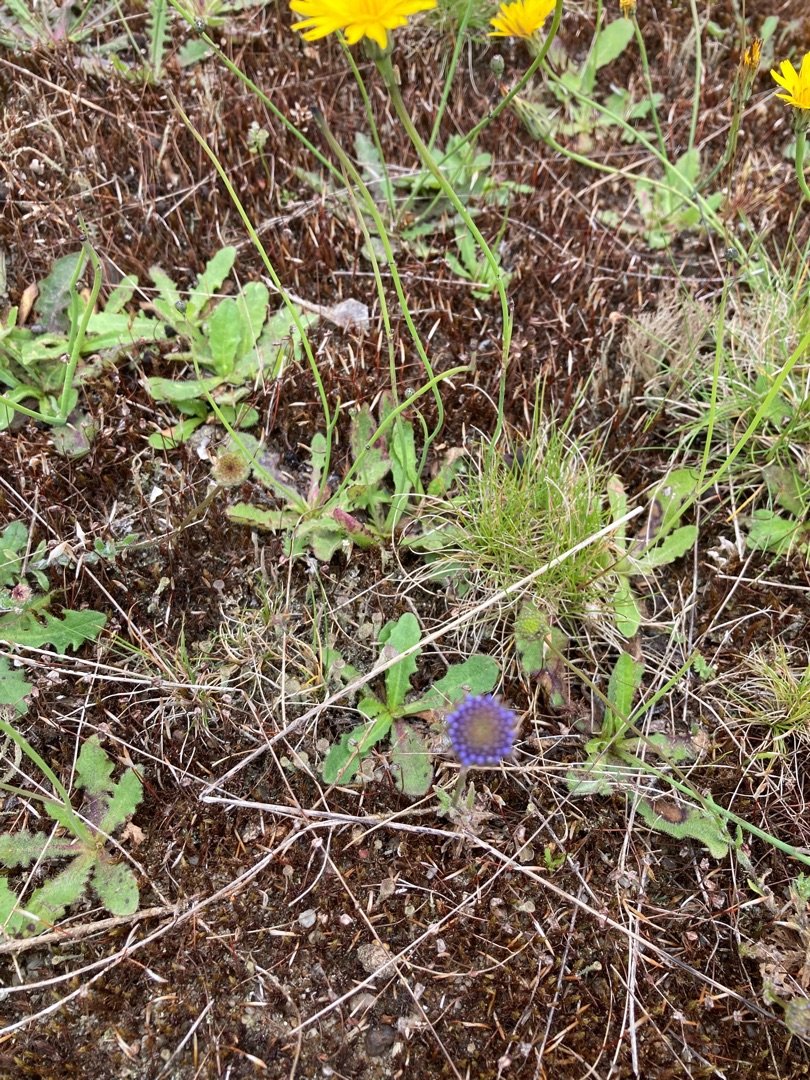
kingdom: Plantae
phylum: Tracheophyta
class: Magnoliopsida
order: Asterales
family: Campanulaceae
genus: Jasione
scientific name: Jasione montana
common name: Blåmunke
